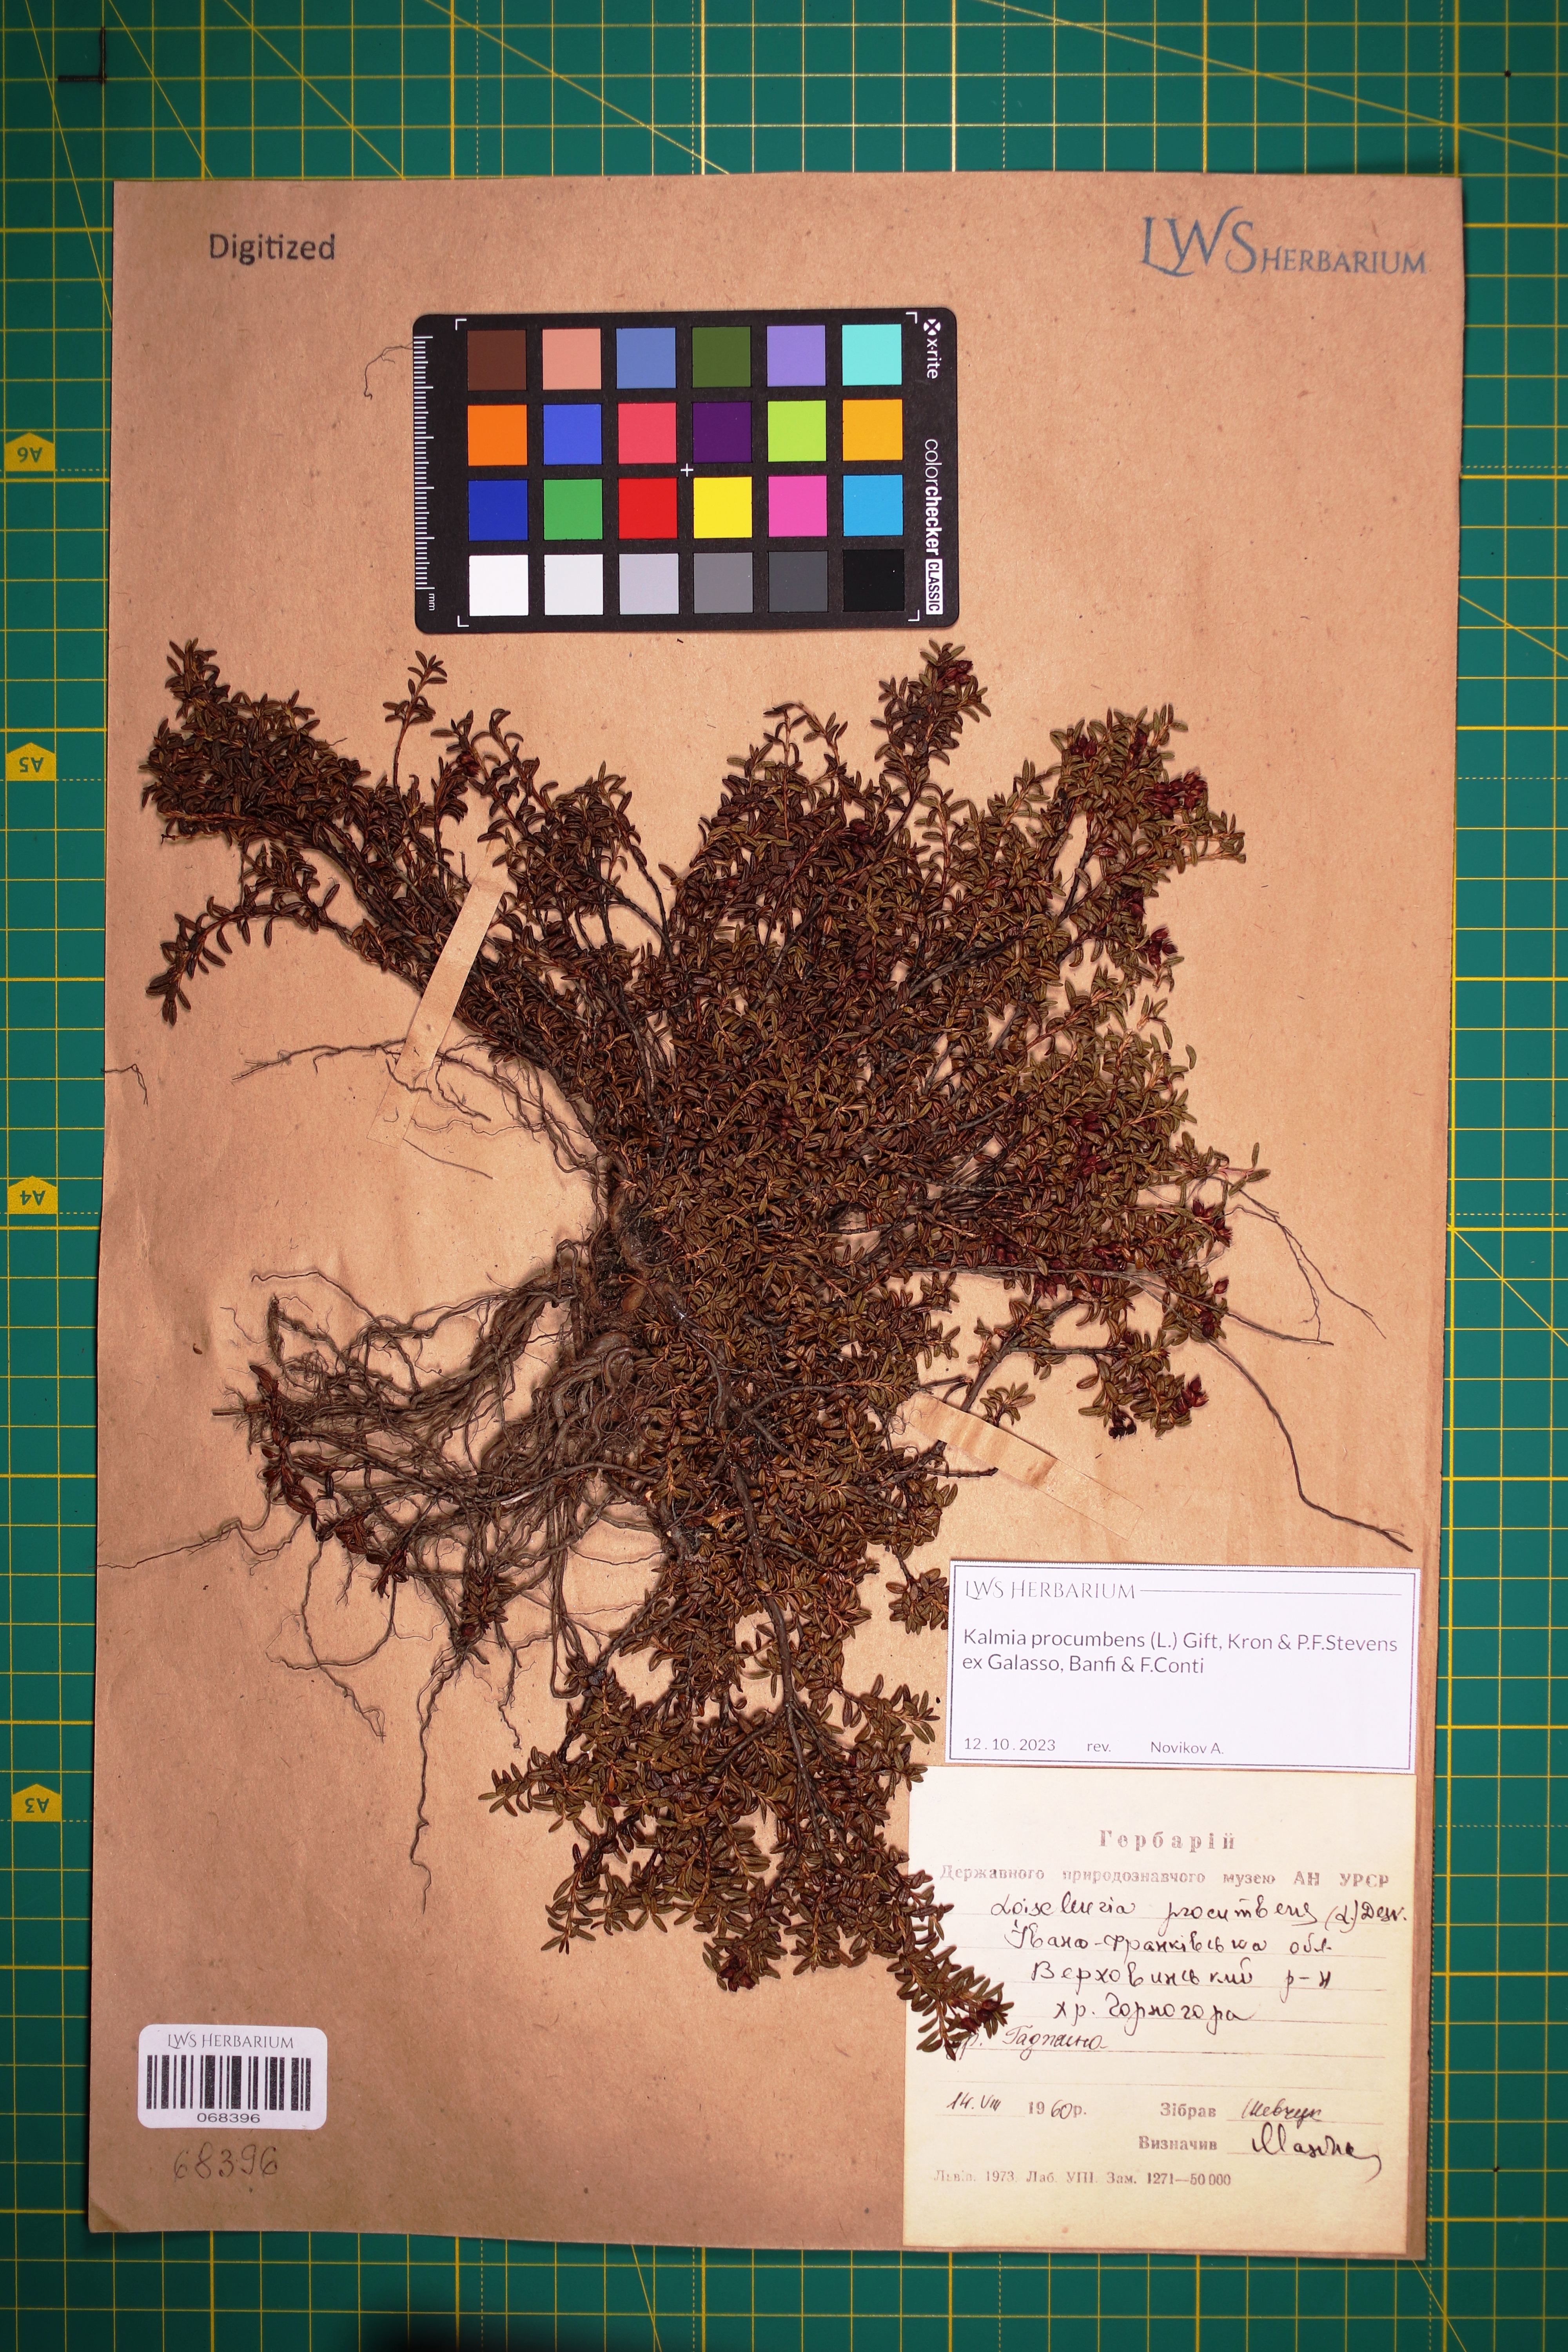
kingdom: Plantae
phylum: Tracheophyta
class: Magnoliopsida
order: Ericales
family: Ericaceae
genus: Kalmia
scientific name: Kalmia procumbens
